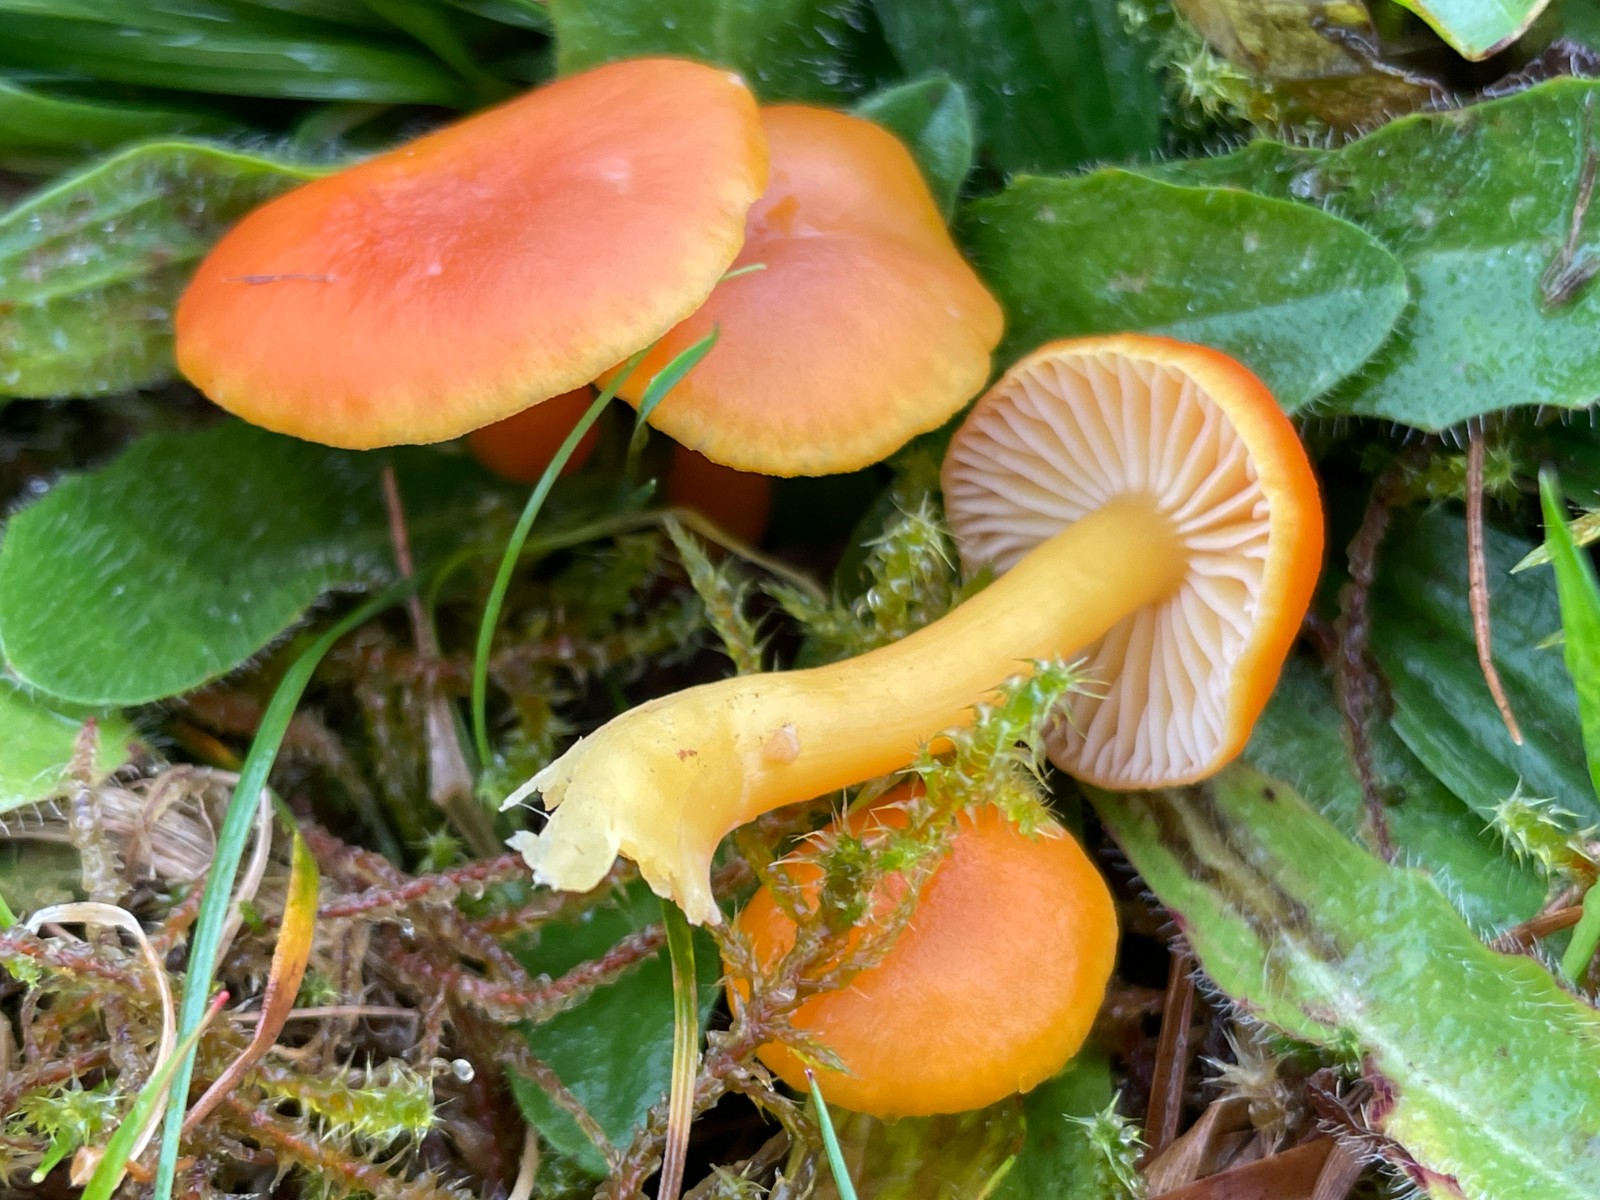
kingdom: Fungi
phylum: Basidiomycota
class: Agaricomycetes
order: Agaricales
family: Hygrophoraceae
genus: Hygrocybe
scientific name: Hygrocybe miniata
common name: mønje-vokshat
